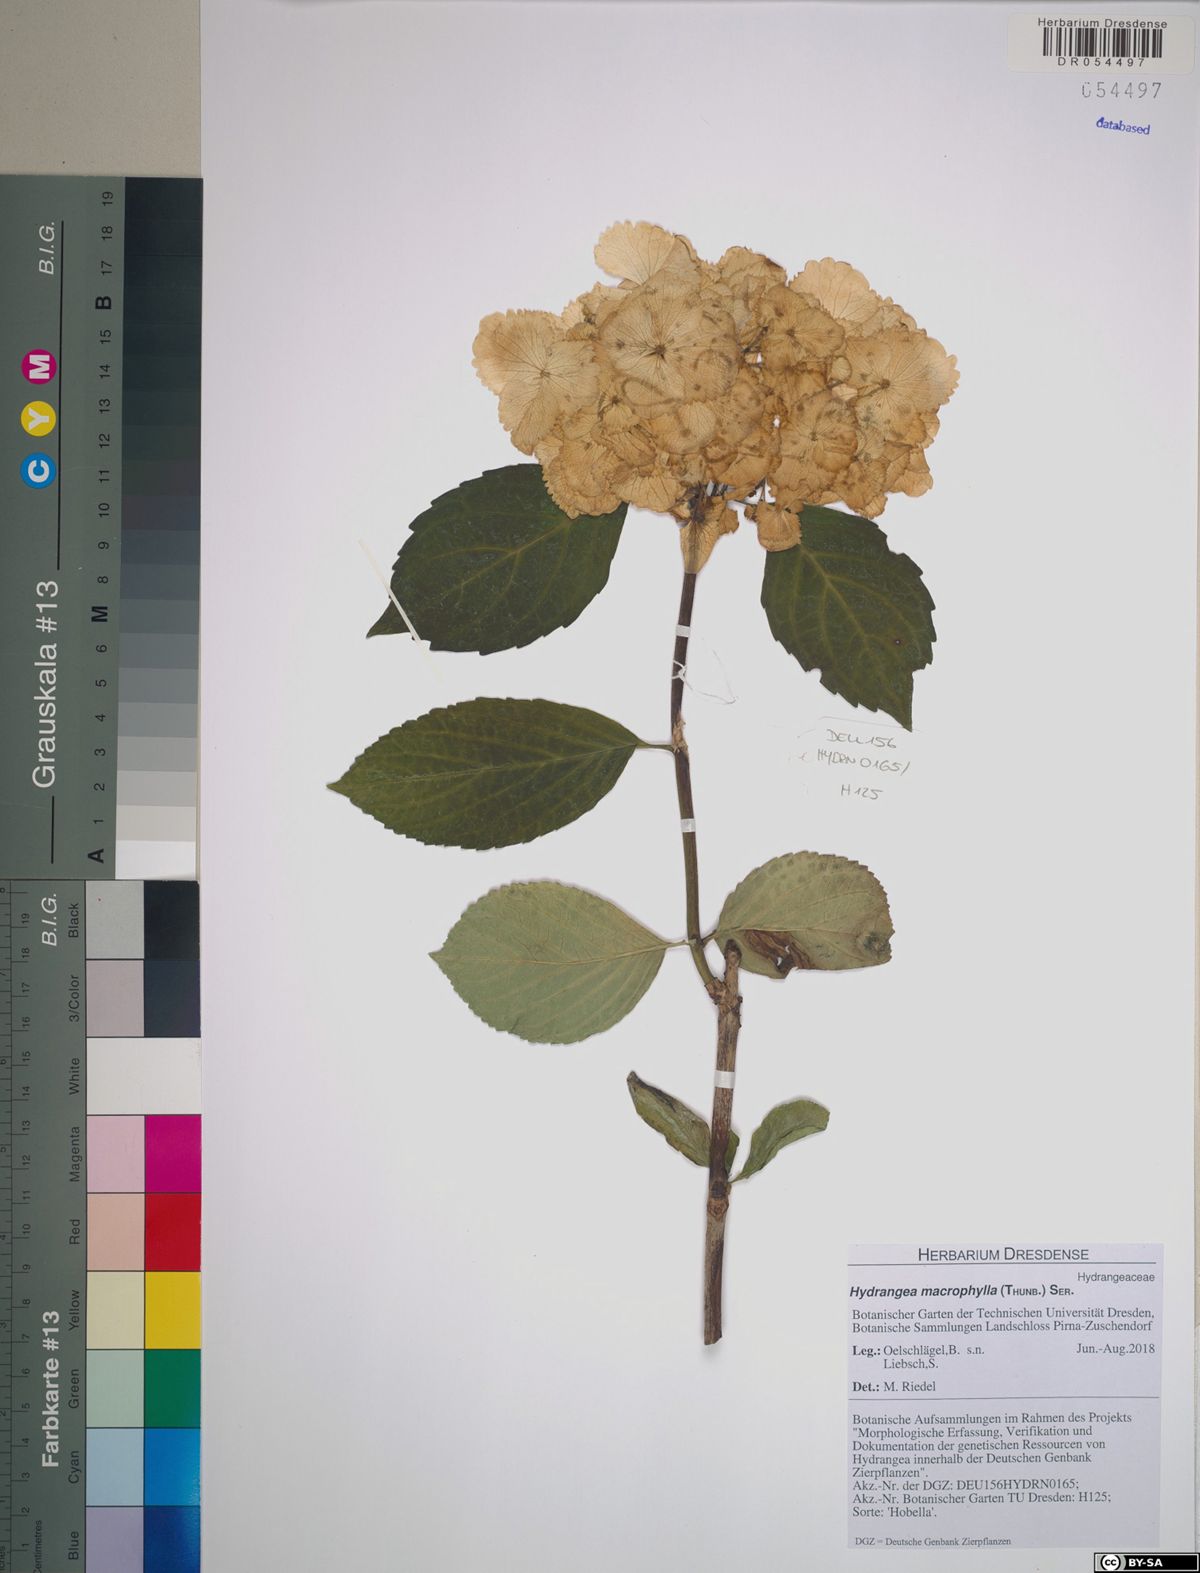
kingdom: Plantae
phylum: Tracheophyta
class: Magnoliopsida
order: Cornales
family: Hydrangeaceae
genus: Hydrangea
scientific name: Hydrangea macrophylla
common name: Hydrangea
